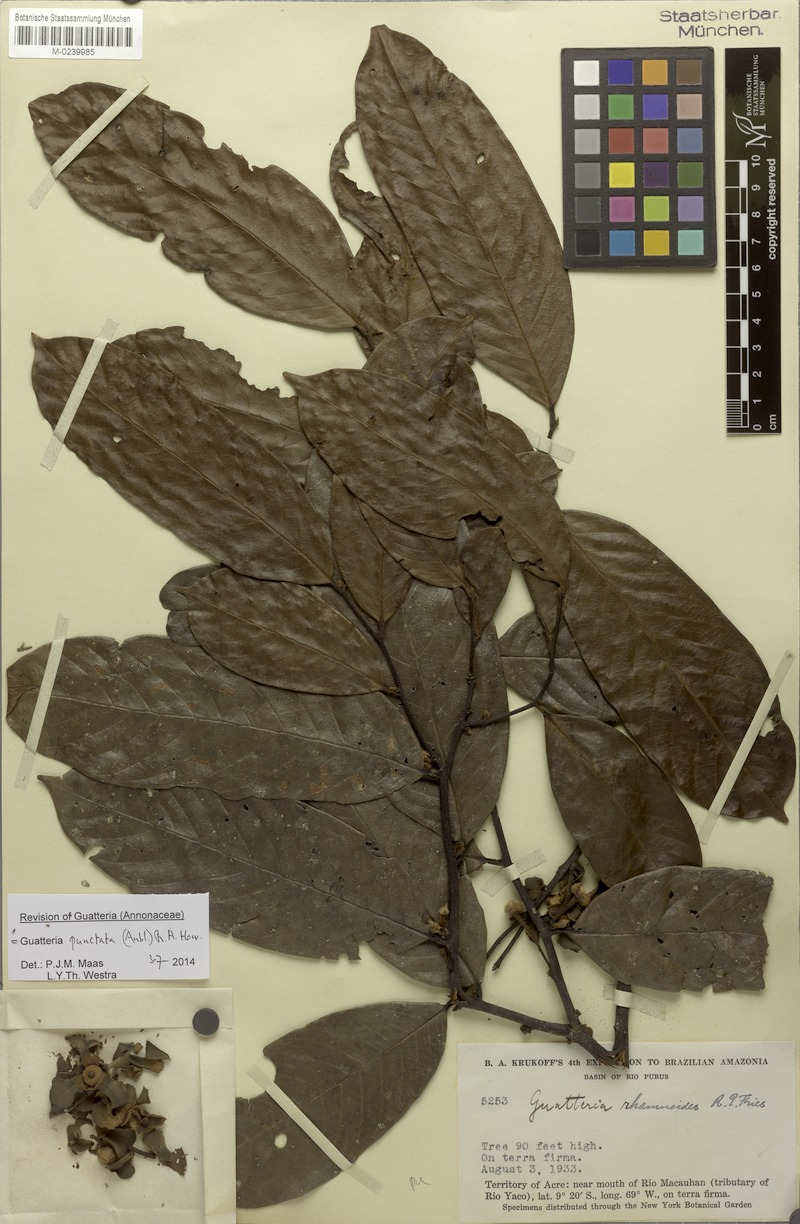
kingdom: Plantae
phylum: Tracheophyta
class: Magnoliopsida
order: Magnoliales
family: Annonaceae
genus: Guatteria
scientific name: Guatteria punctata
